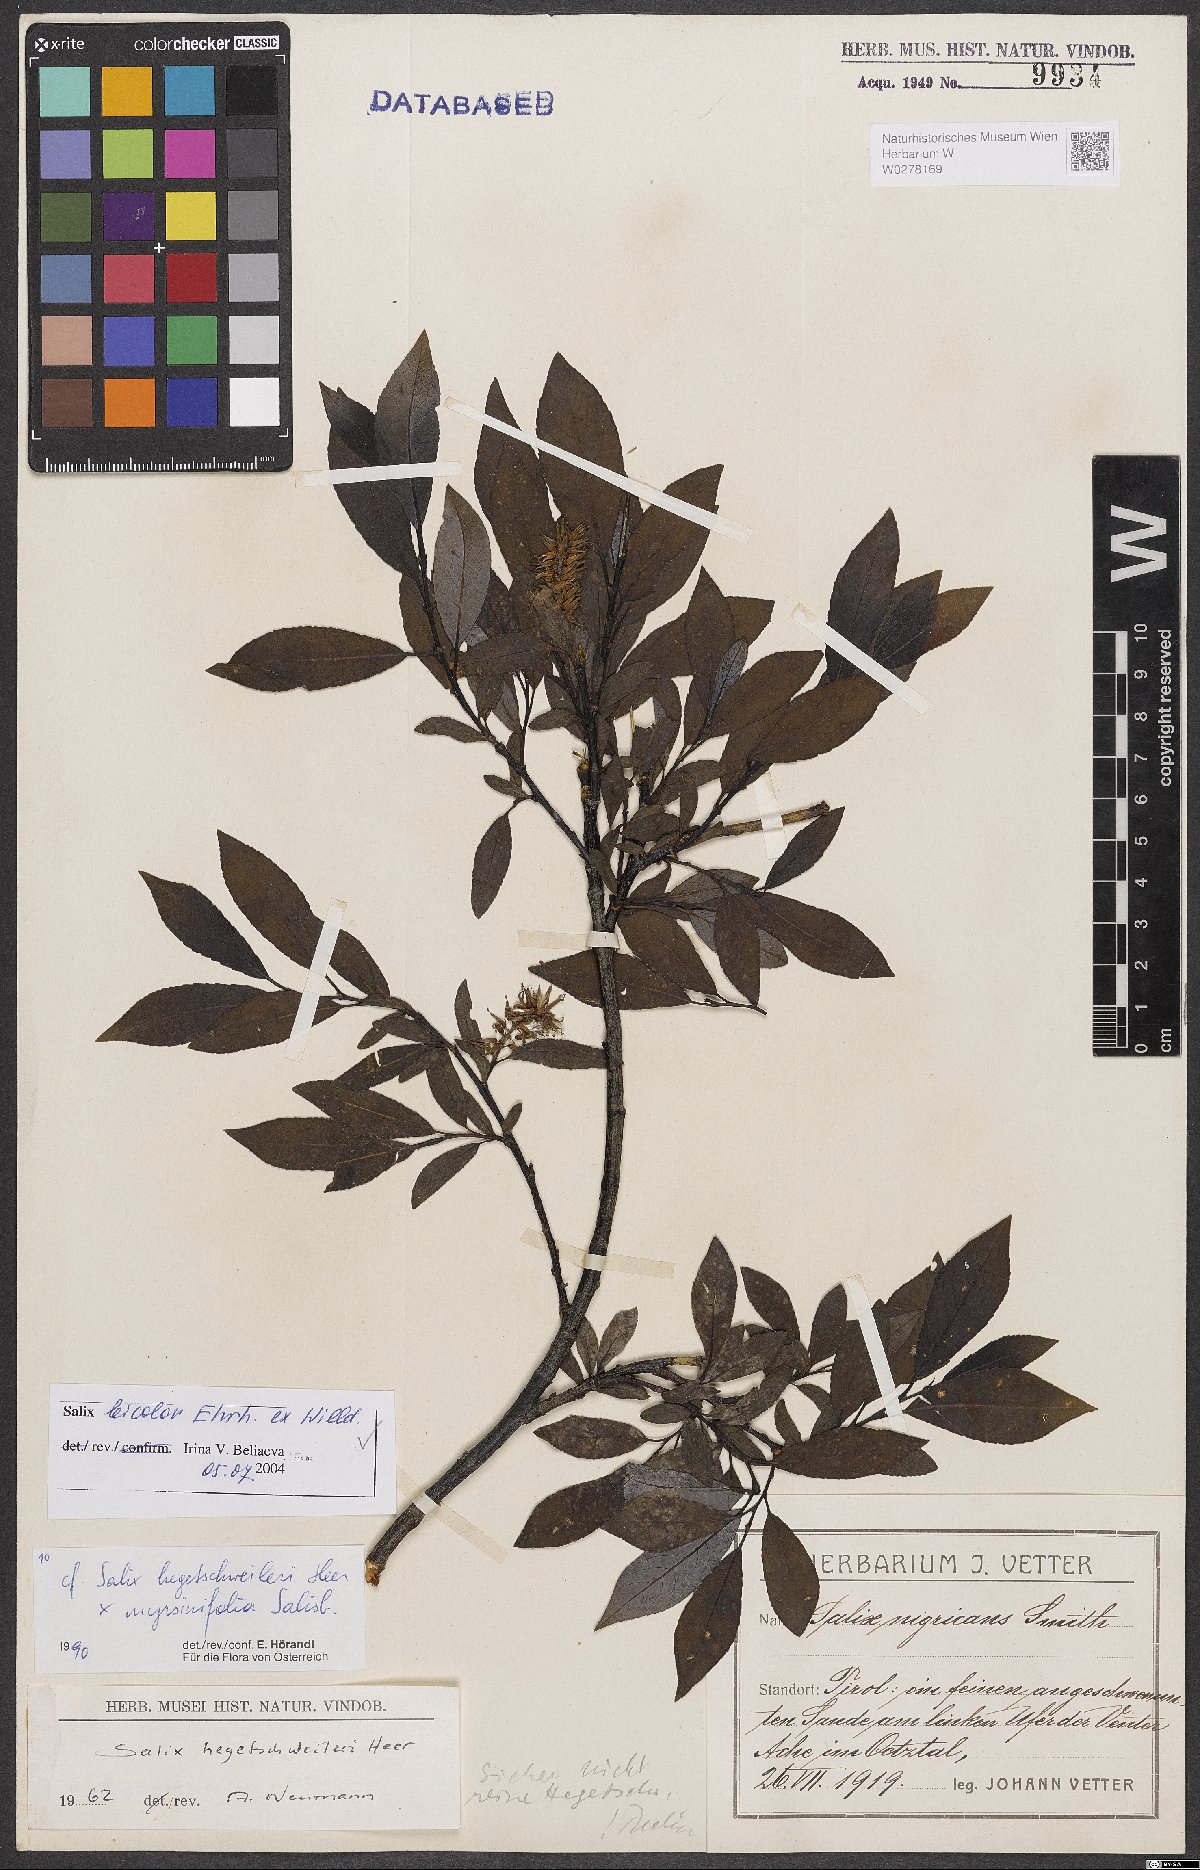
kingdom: Plantae
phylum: Tracheophyta
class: Magnoliopsida
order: Malpighiales
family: Salicaceae
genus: Salix
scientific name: Salix bicolor
